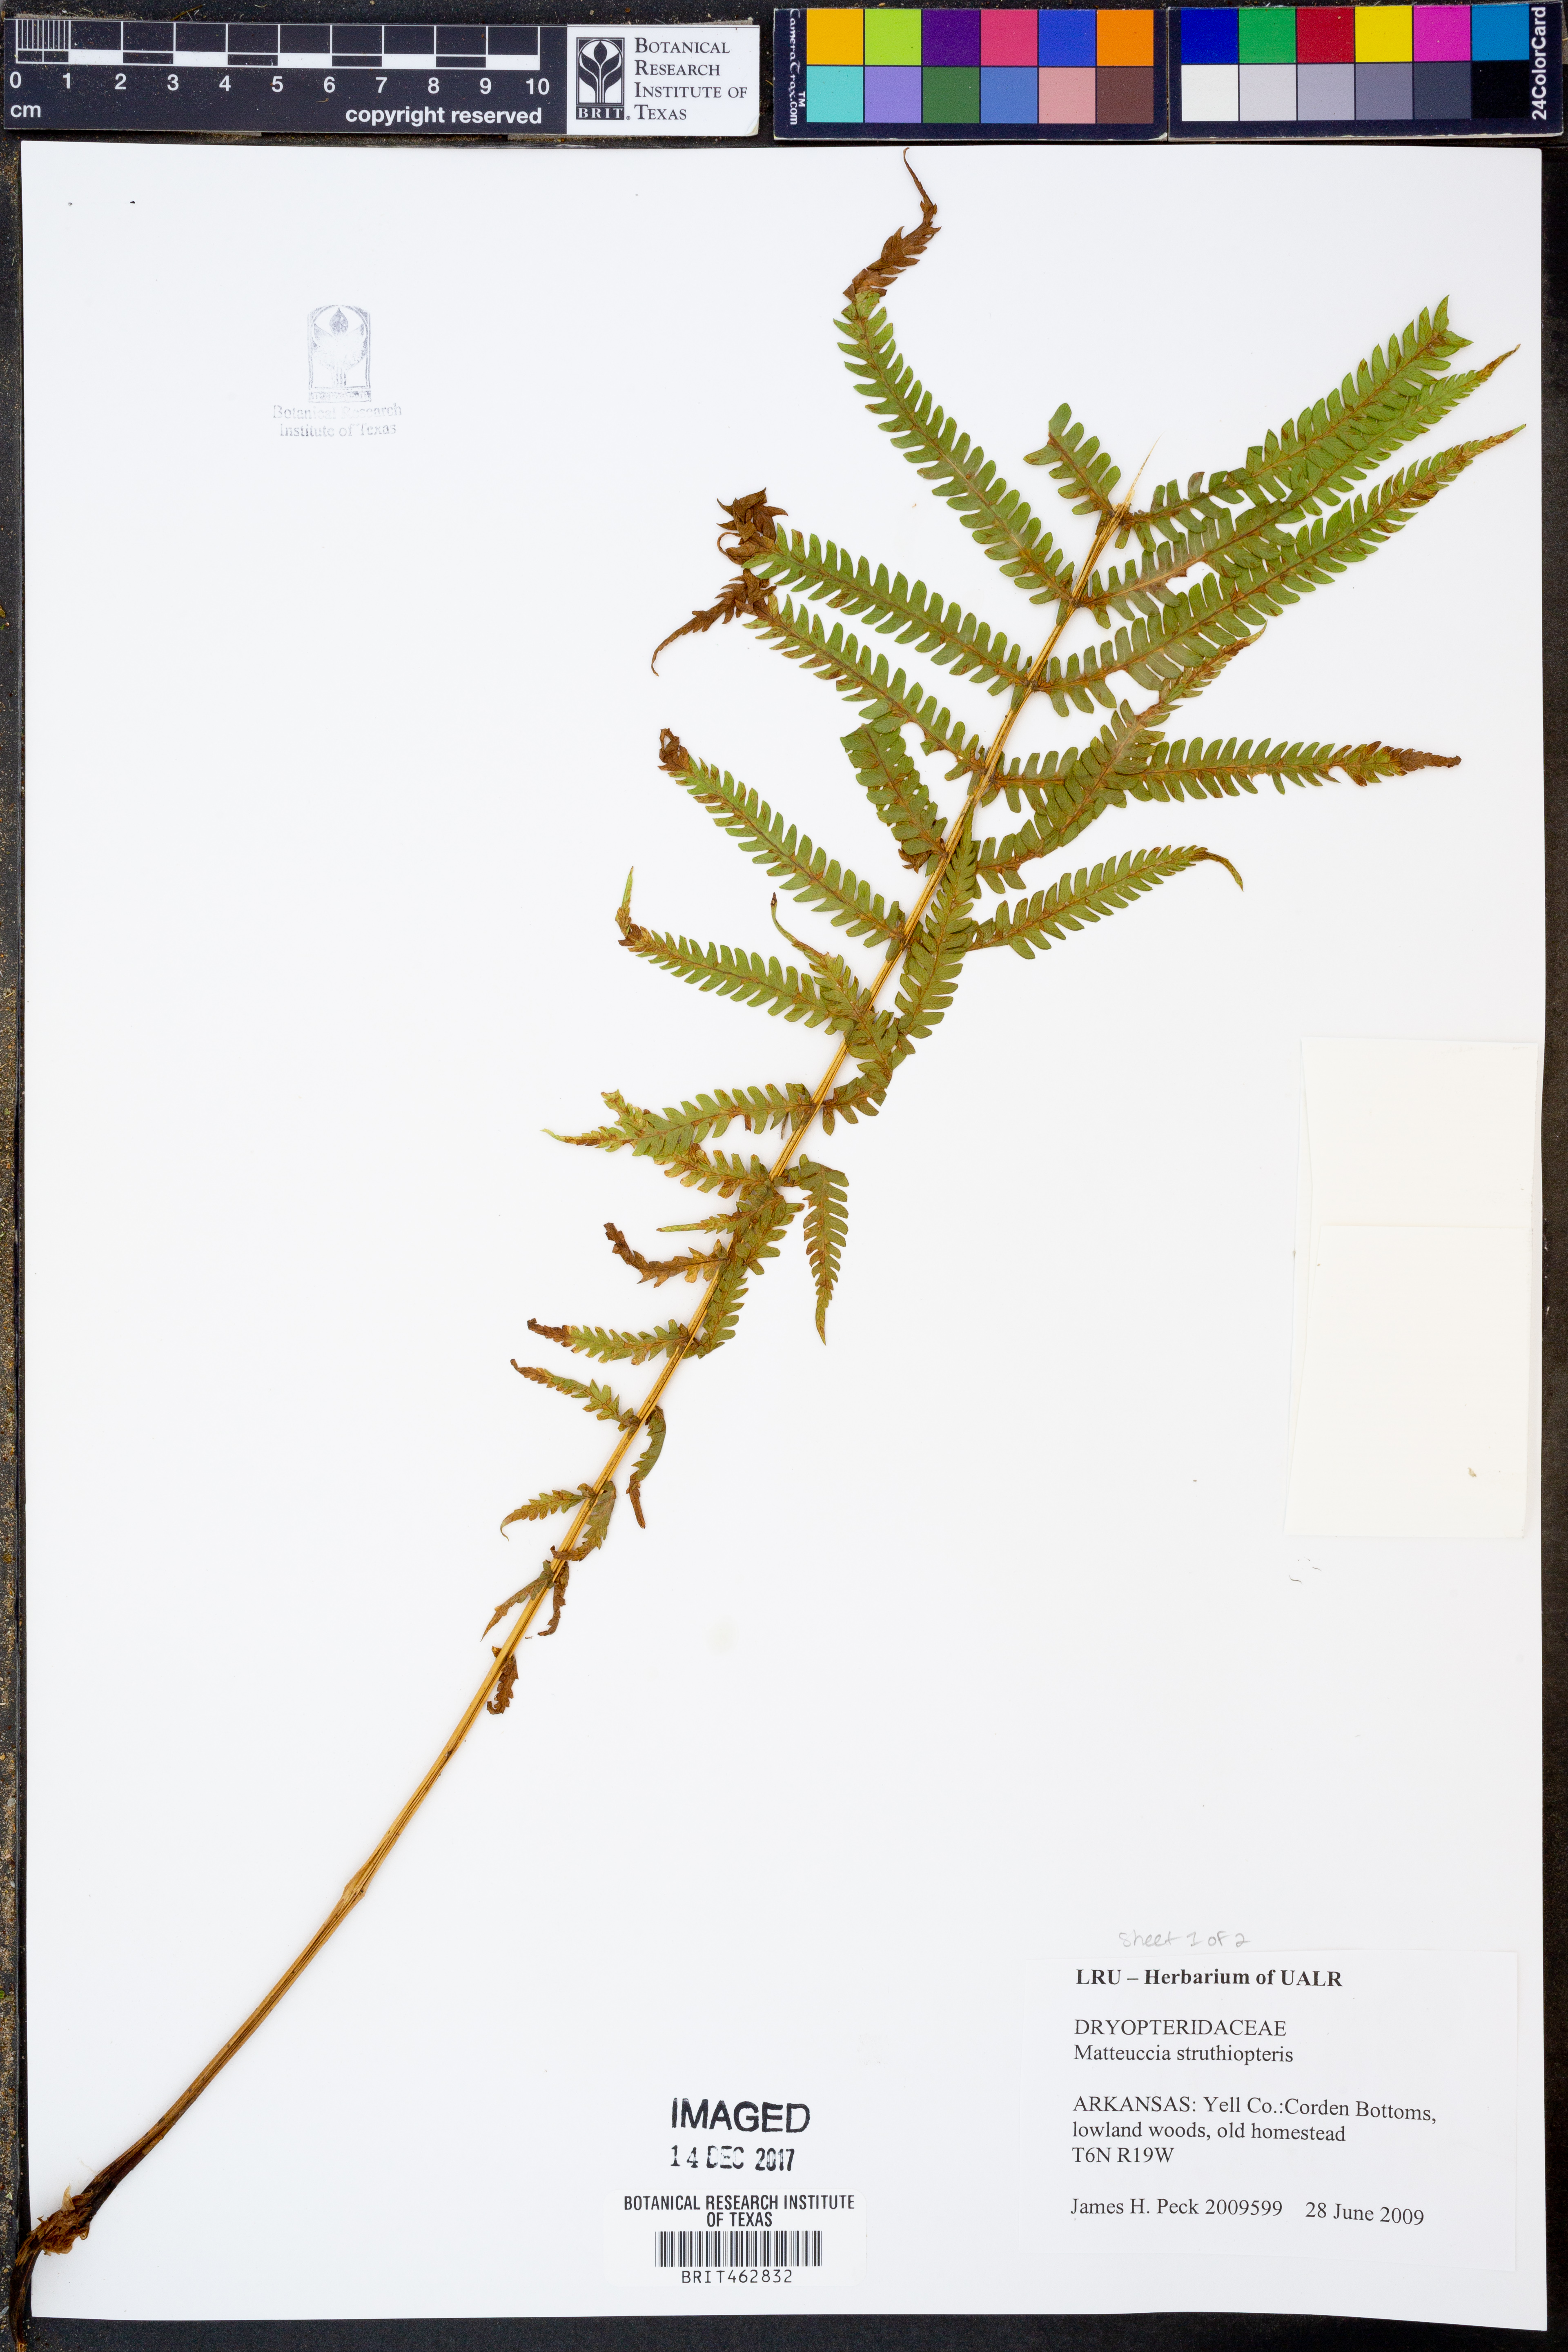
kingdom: Plantae
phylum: Tracheophyta
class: Polypodiopsida
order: Polypodiales
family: Onocleaceae
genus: Matteuccia
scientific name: Matteuccia struthiopteris
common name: Ostrich fern
